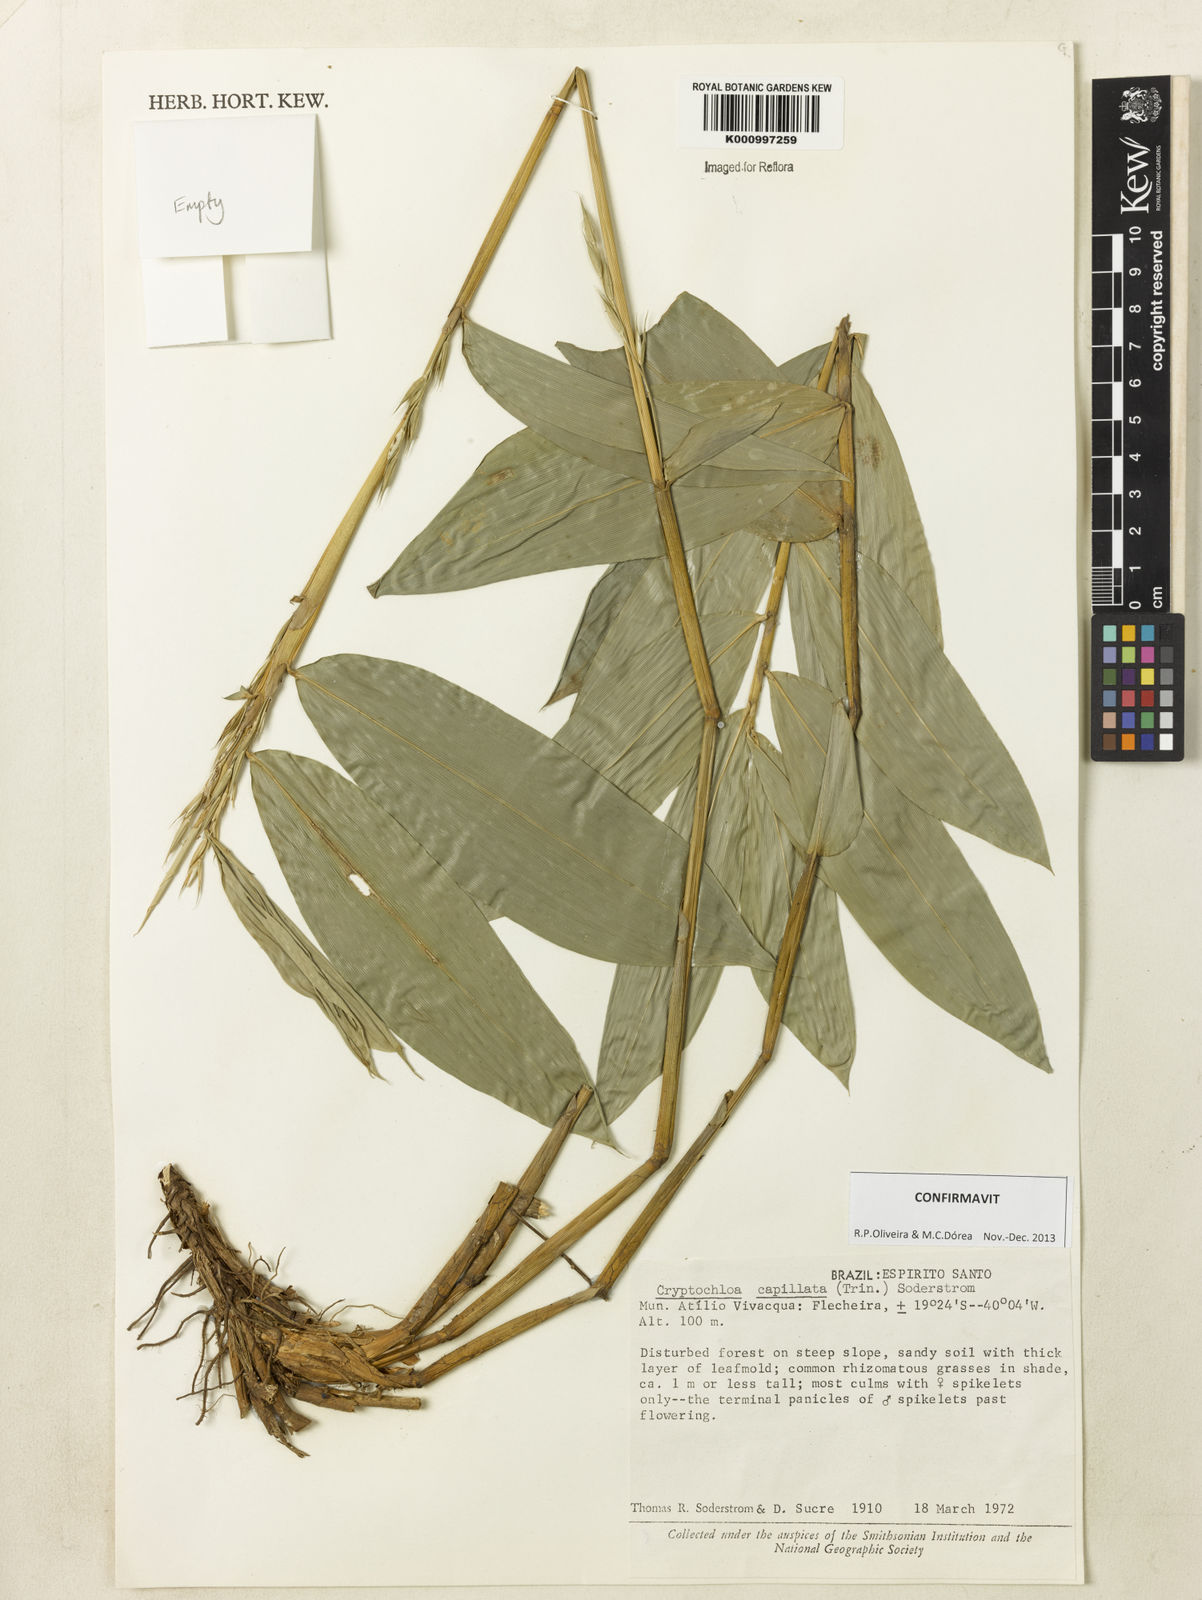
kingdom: Plantae
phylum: Tracheophyta
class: Liliopsida
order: Poales
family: Poaceae
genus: Cryptochloa
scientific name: Cryptochloa capillata
